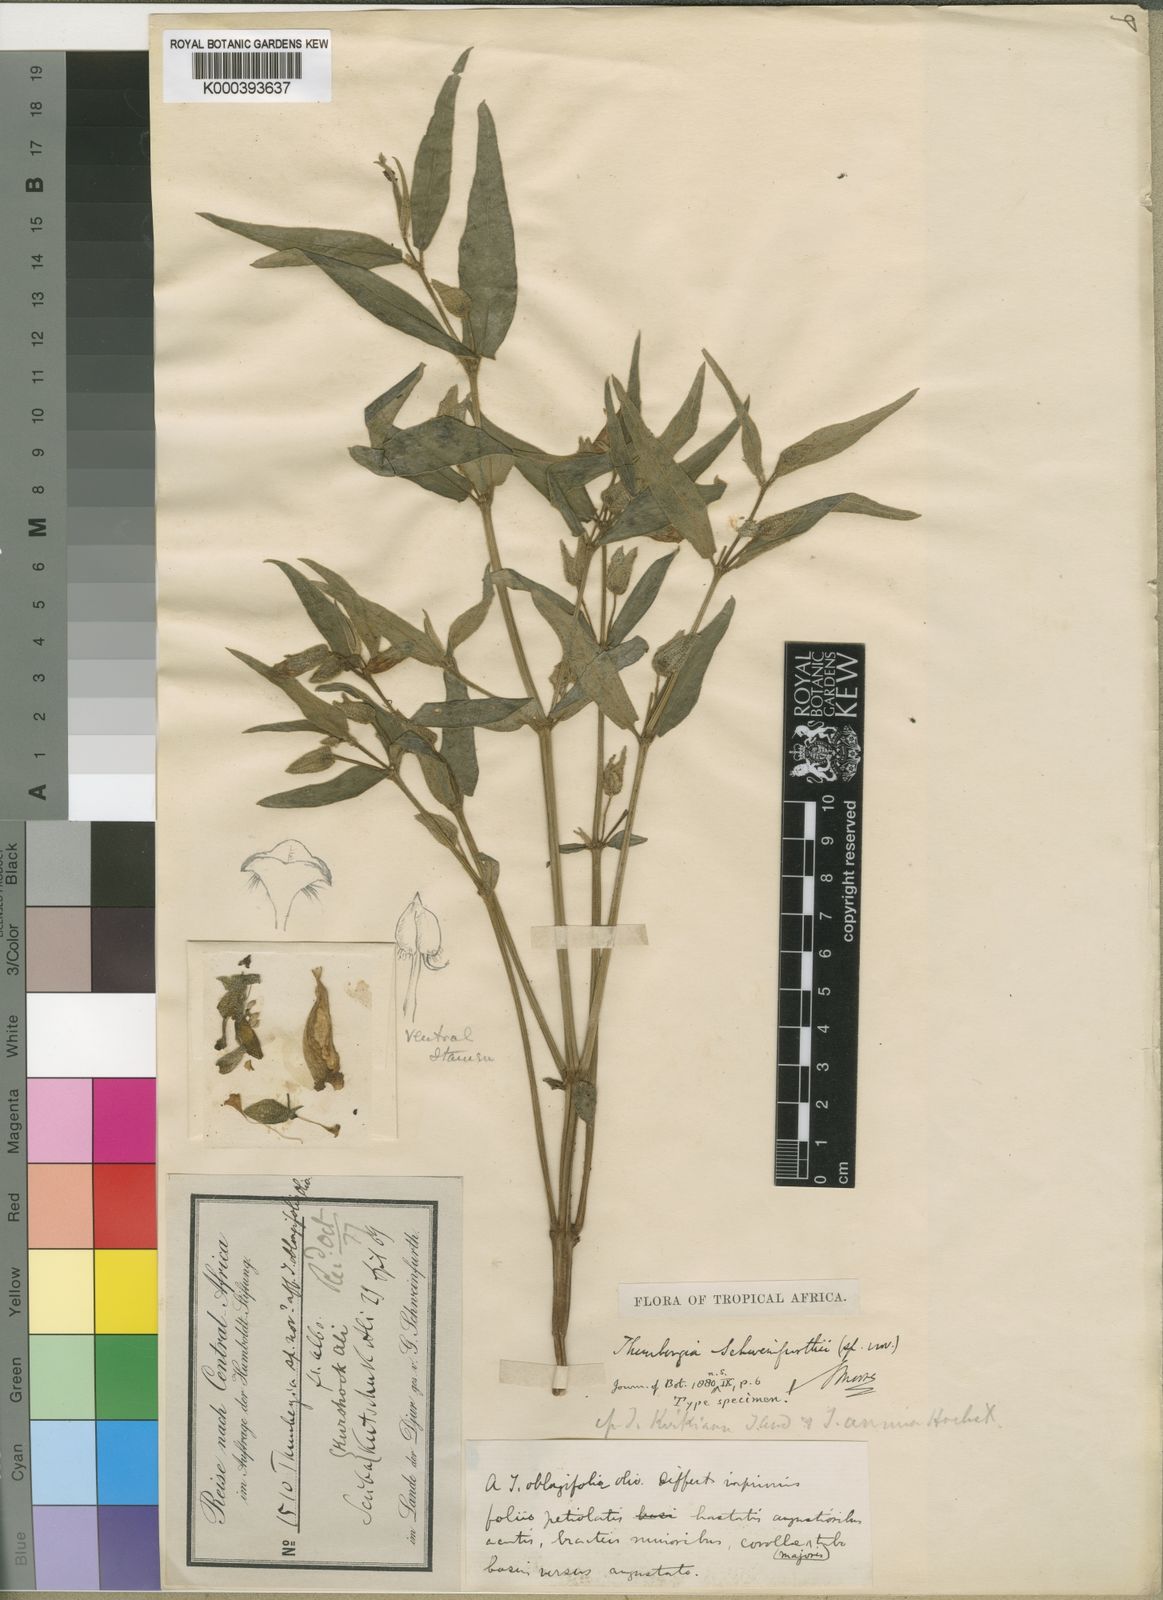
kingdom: Plantae
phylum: Tracheophyta
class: Magnoliopsida
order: Lamiales
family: Acanthaceae
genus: Thunbergia
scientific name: Thunbergia schweinfurthii
